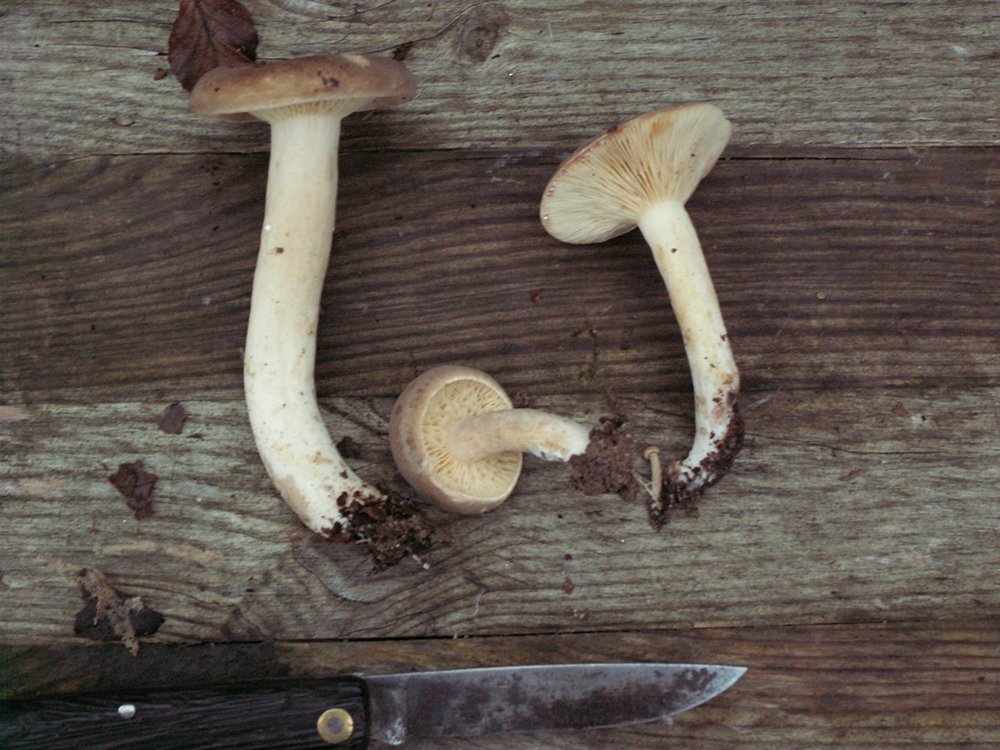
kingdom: Fungi
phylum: Basidiomycota
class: Agaricomycetes
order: Russulales
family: Russulaceae
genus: Lactarius
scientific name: Lactarius pterosporus
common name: vingesporet mælkehat
